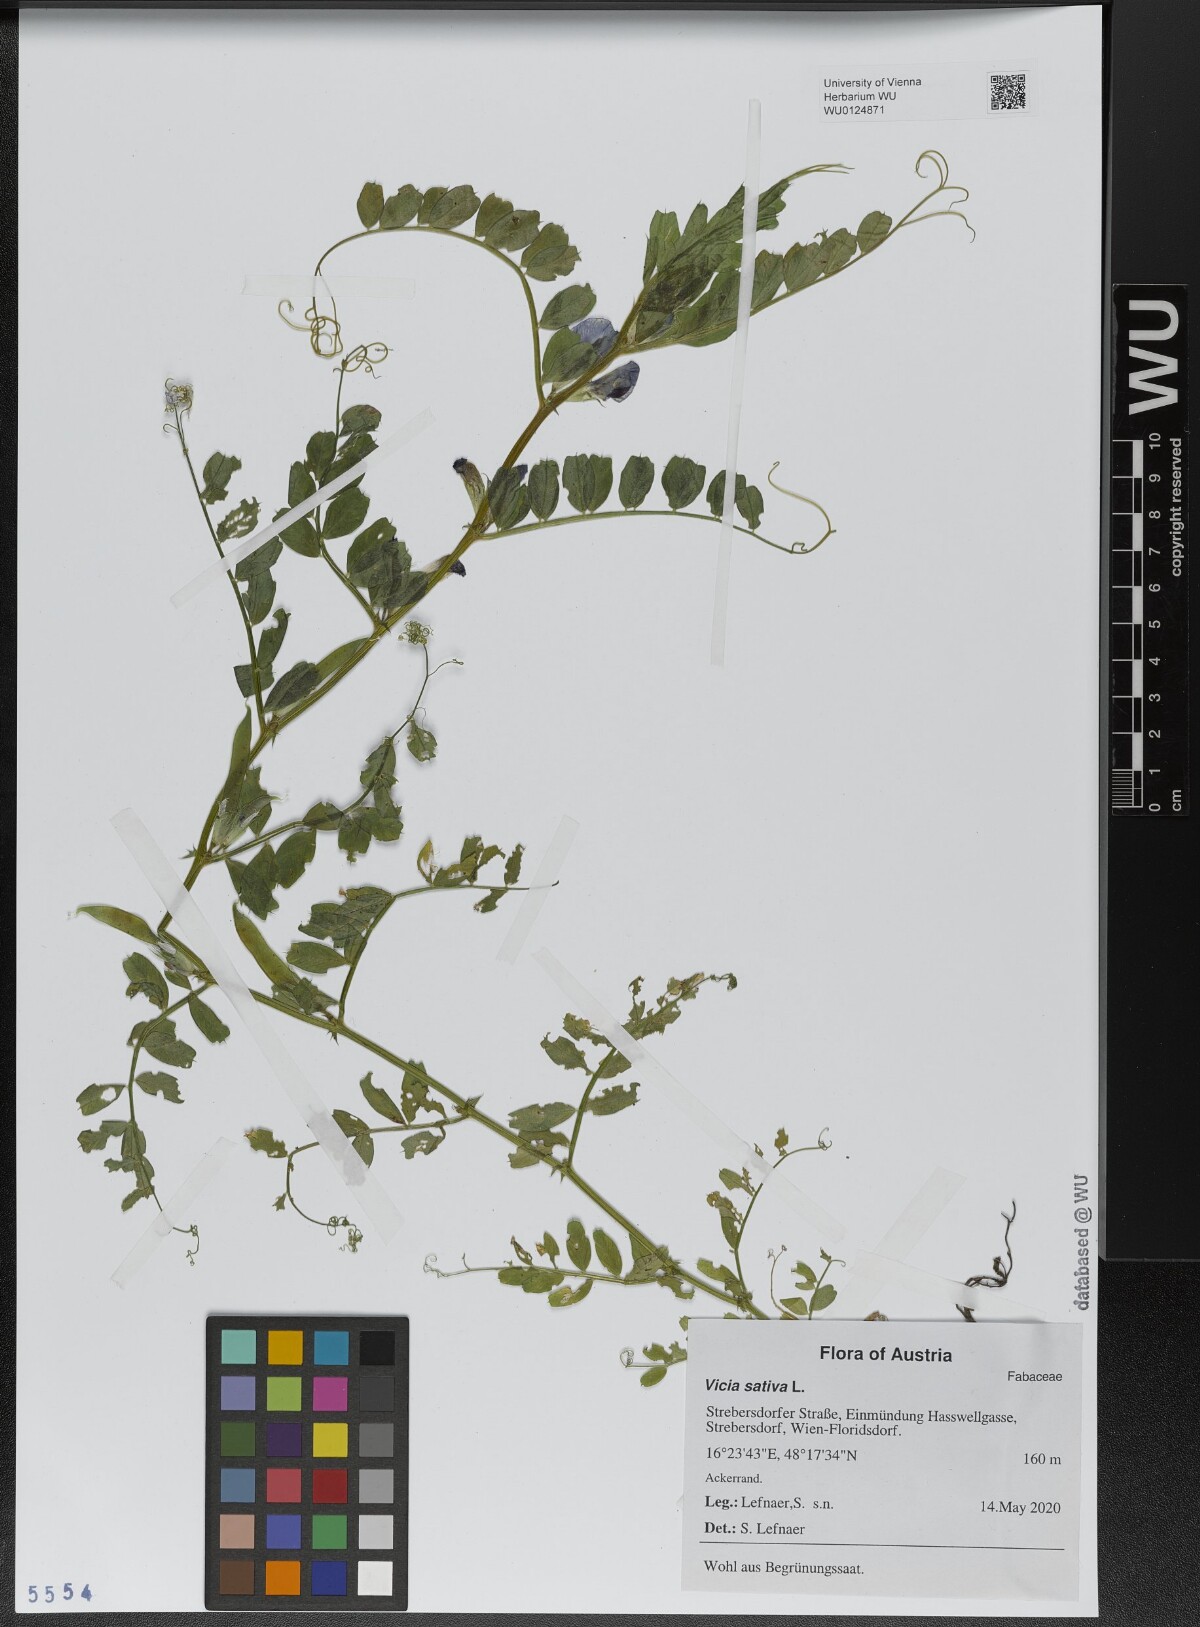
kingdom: Plantae
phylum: Tracheophyta
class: Magnoliopsida
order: Fabales
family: Fabaceae
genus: Vicia
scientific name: Vicia sativa
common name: Garden vetch
